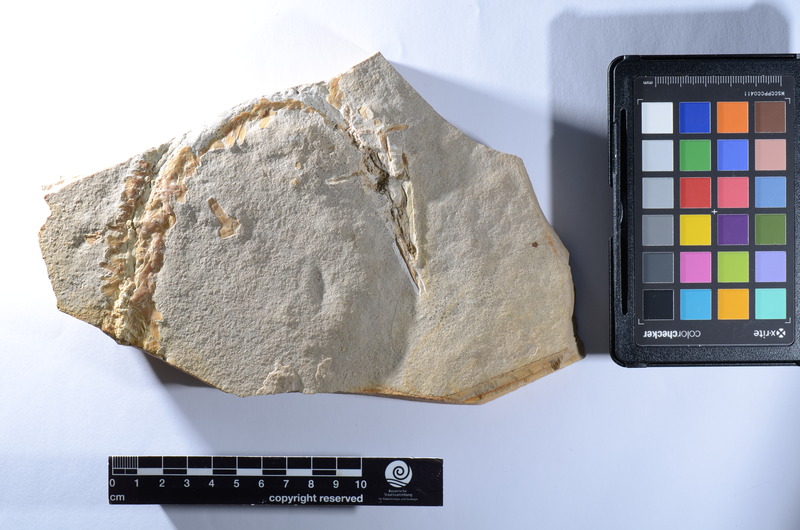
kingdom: Animalia
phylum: Chordata
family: Aspidorhynchidae
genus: Aspidorhynchus
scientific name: Aspidorhynchus
